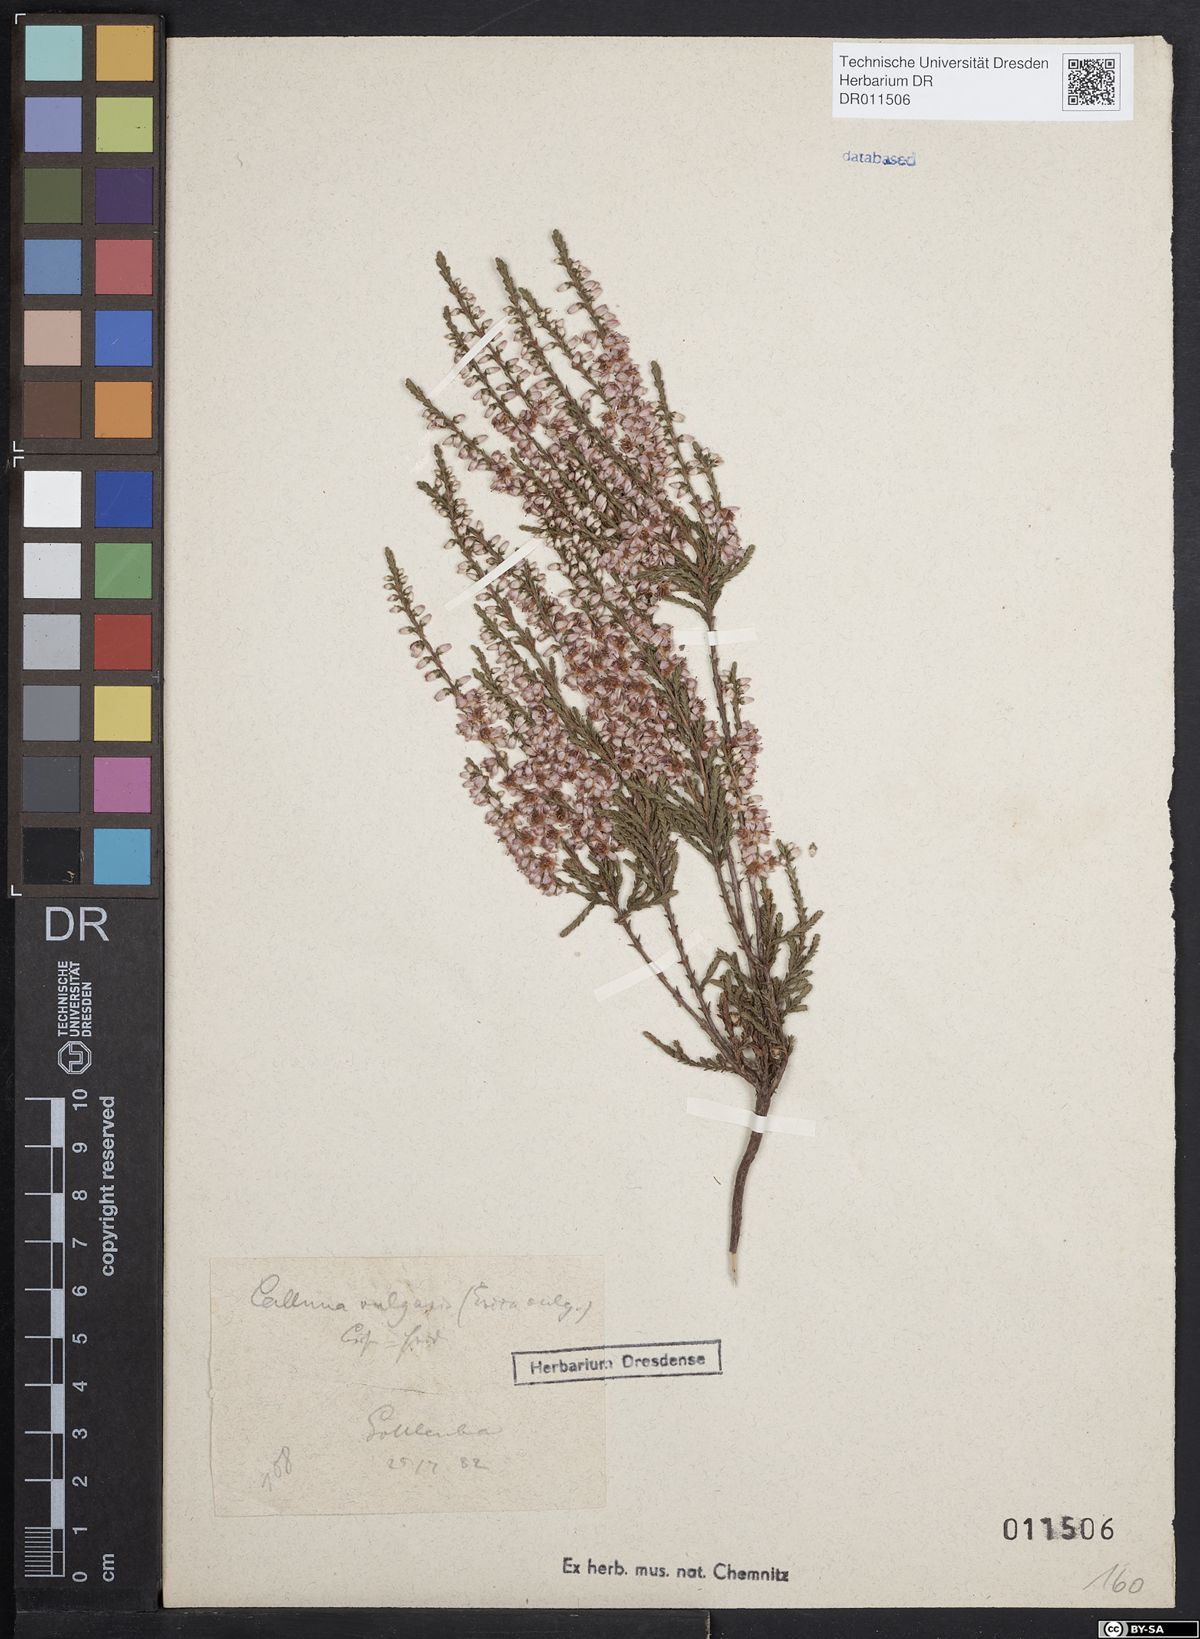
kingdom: Plantae
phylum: Tracheophyta
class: Magnoliopsida
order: Ericales
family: Ericaceae
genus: Calluna
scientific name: Calluna vulgaris
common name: Heather
